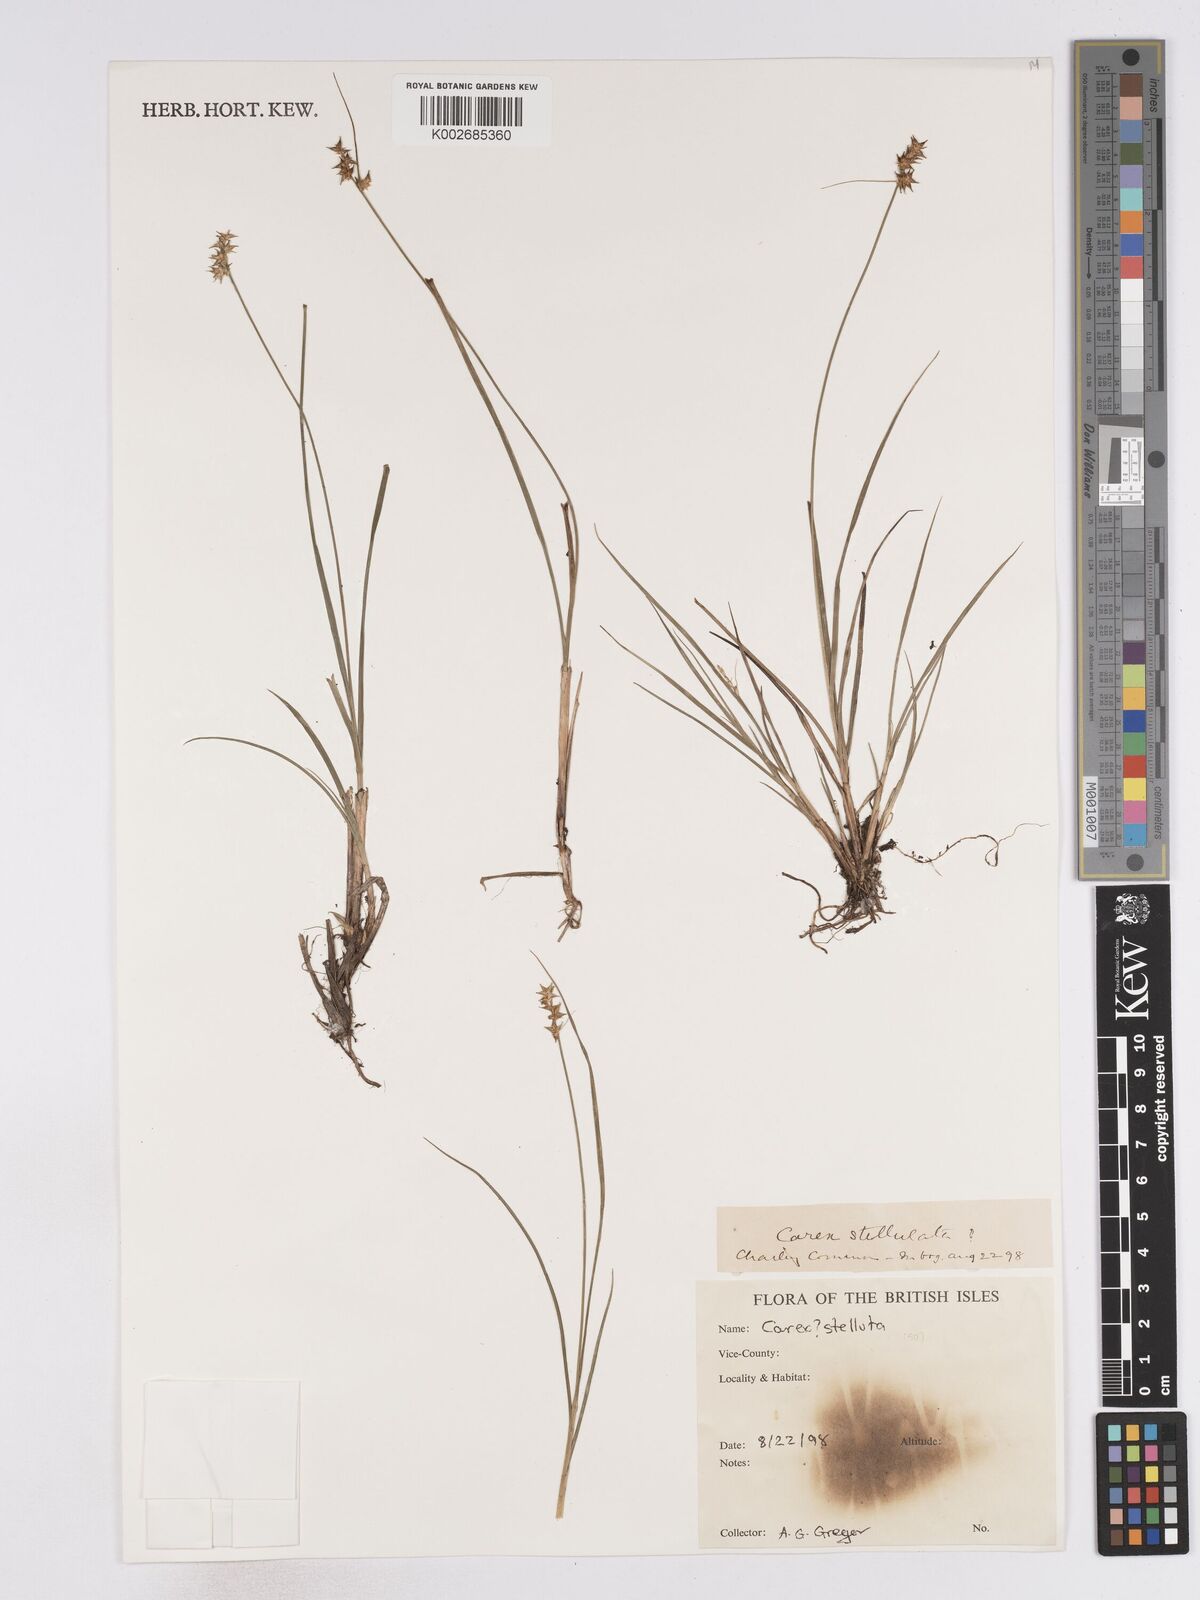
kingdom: Plantae
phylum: Tracheophyta
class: Liliopsida
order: Poales
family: Cyperaceae
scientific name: Cyperaceae
